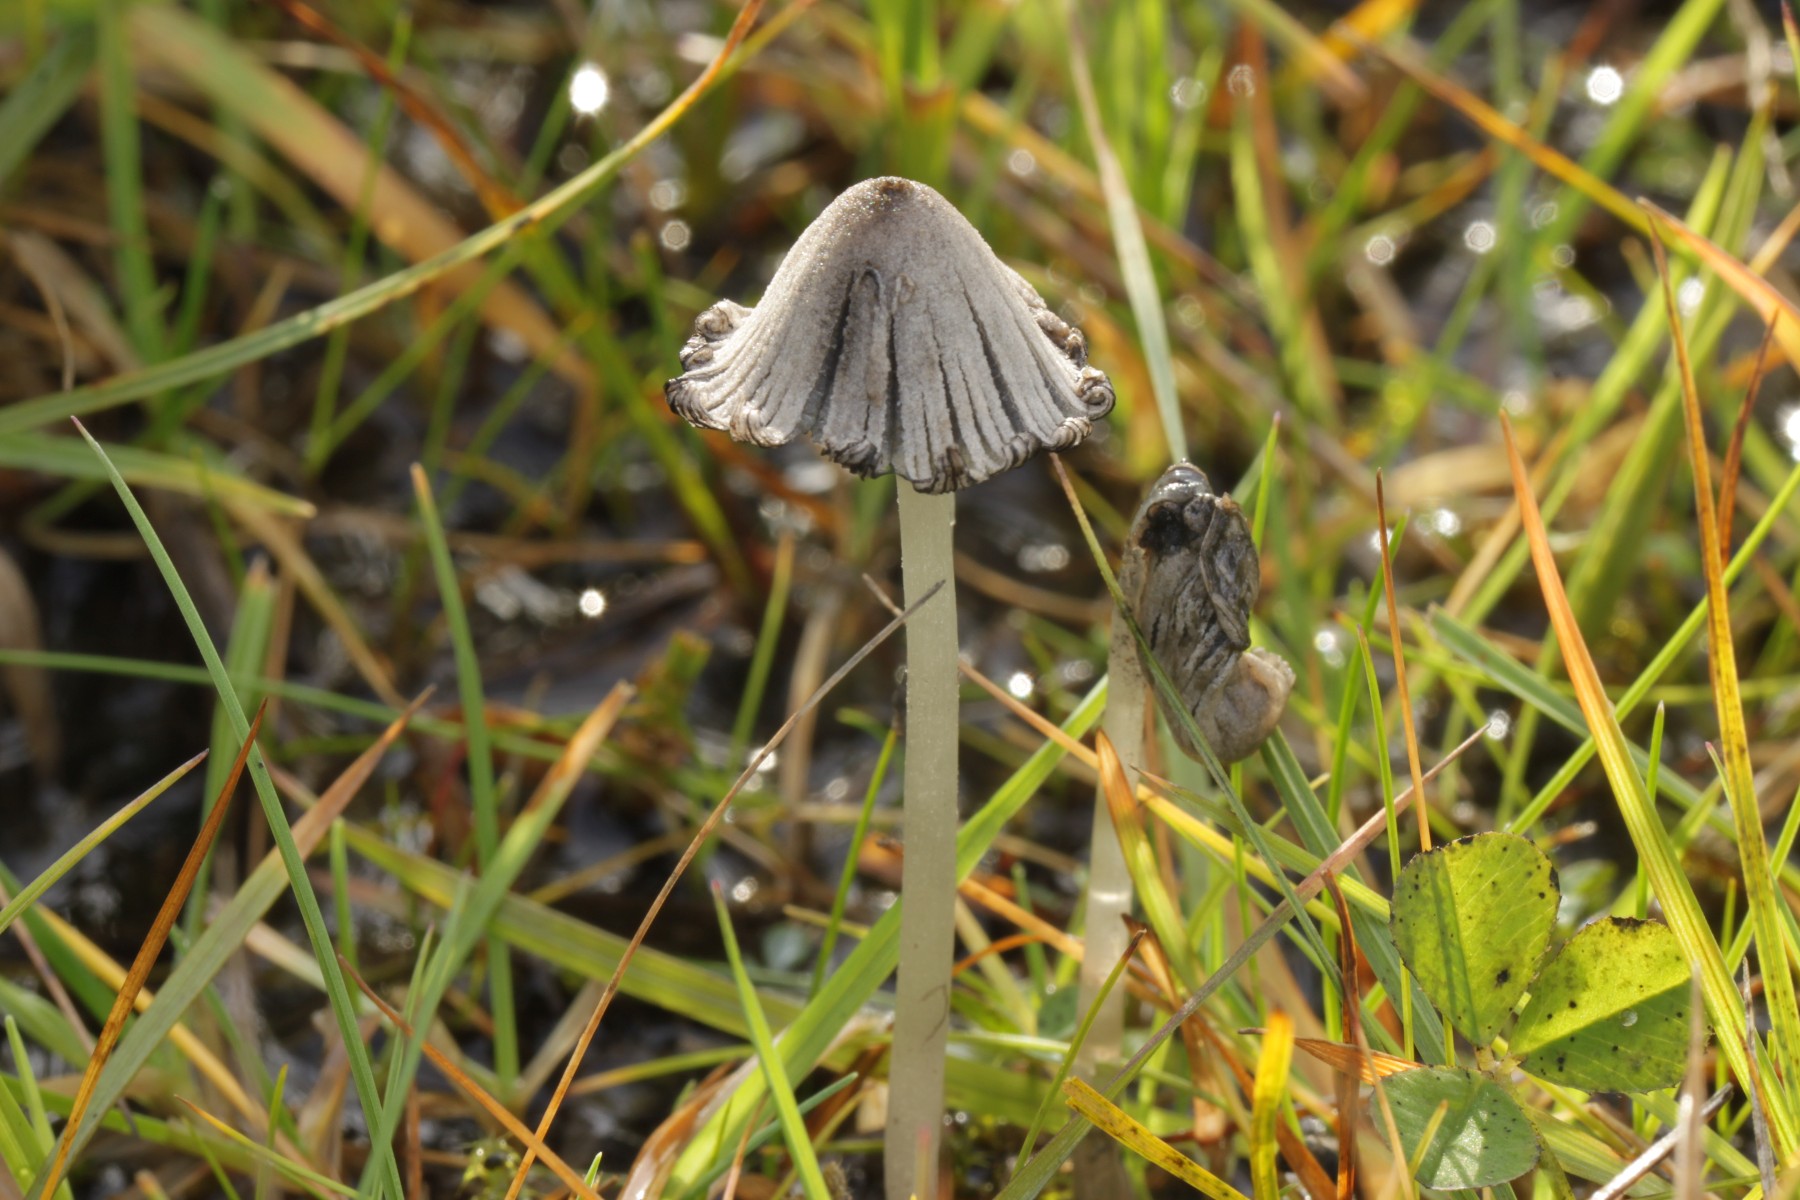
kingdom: Fungi
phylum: Basidiomycota
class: Agaricomycetes
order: Agaricales
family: Psathyrellaceae
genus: Coprinopsis
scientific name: Coprinopsis martinii
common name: rigkær-blækhat
